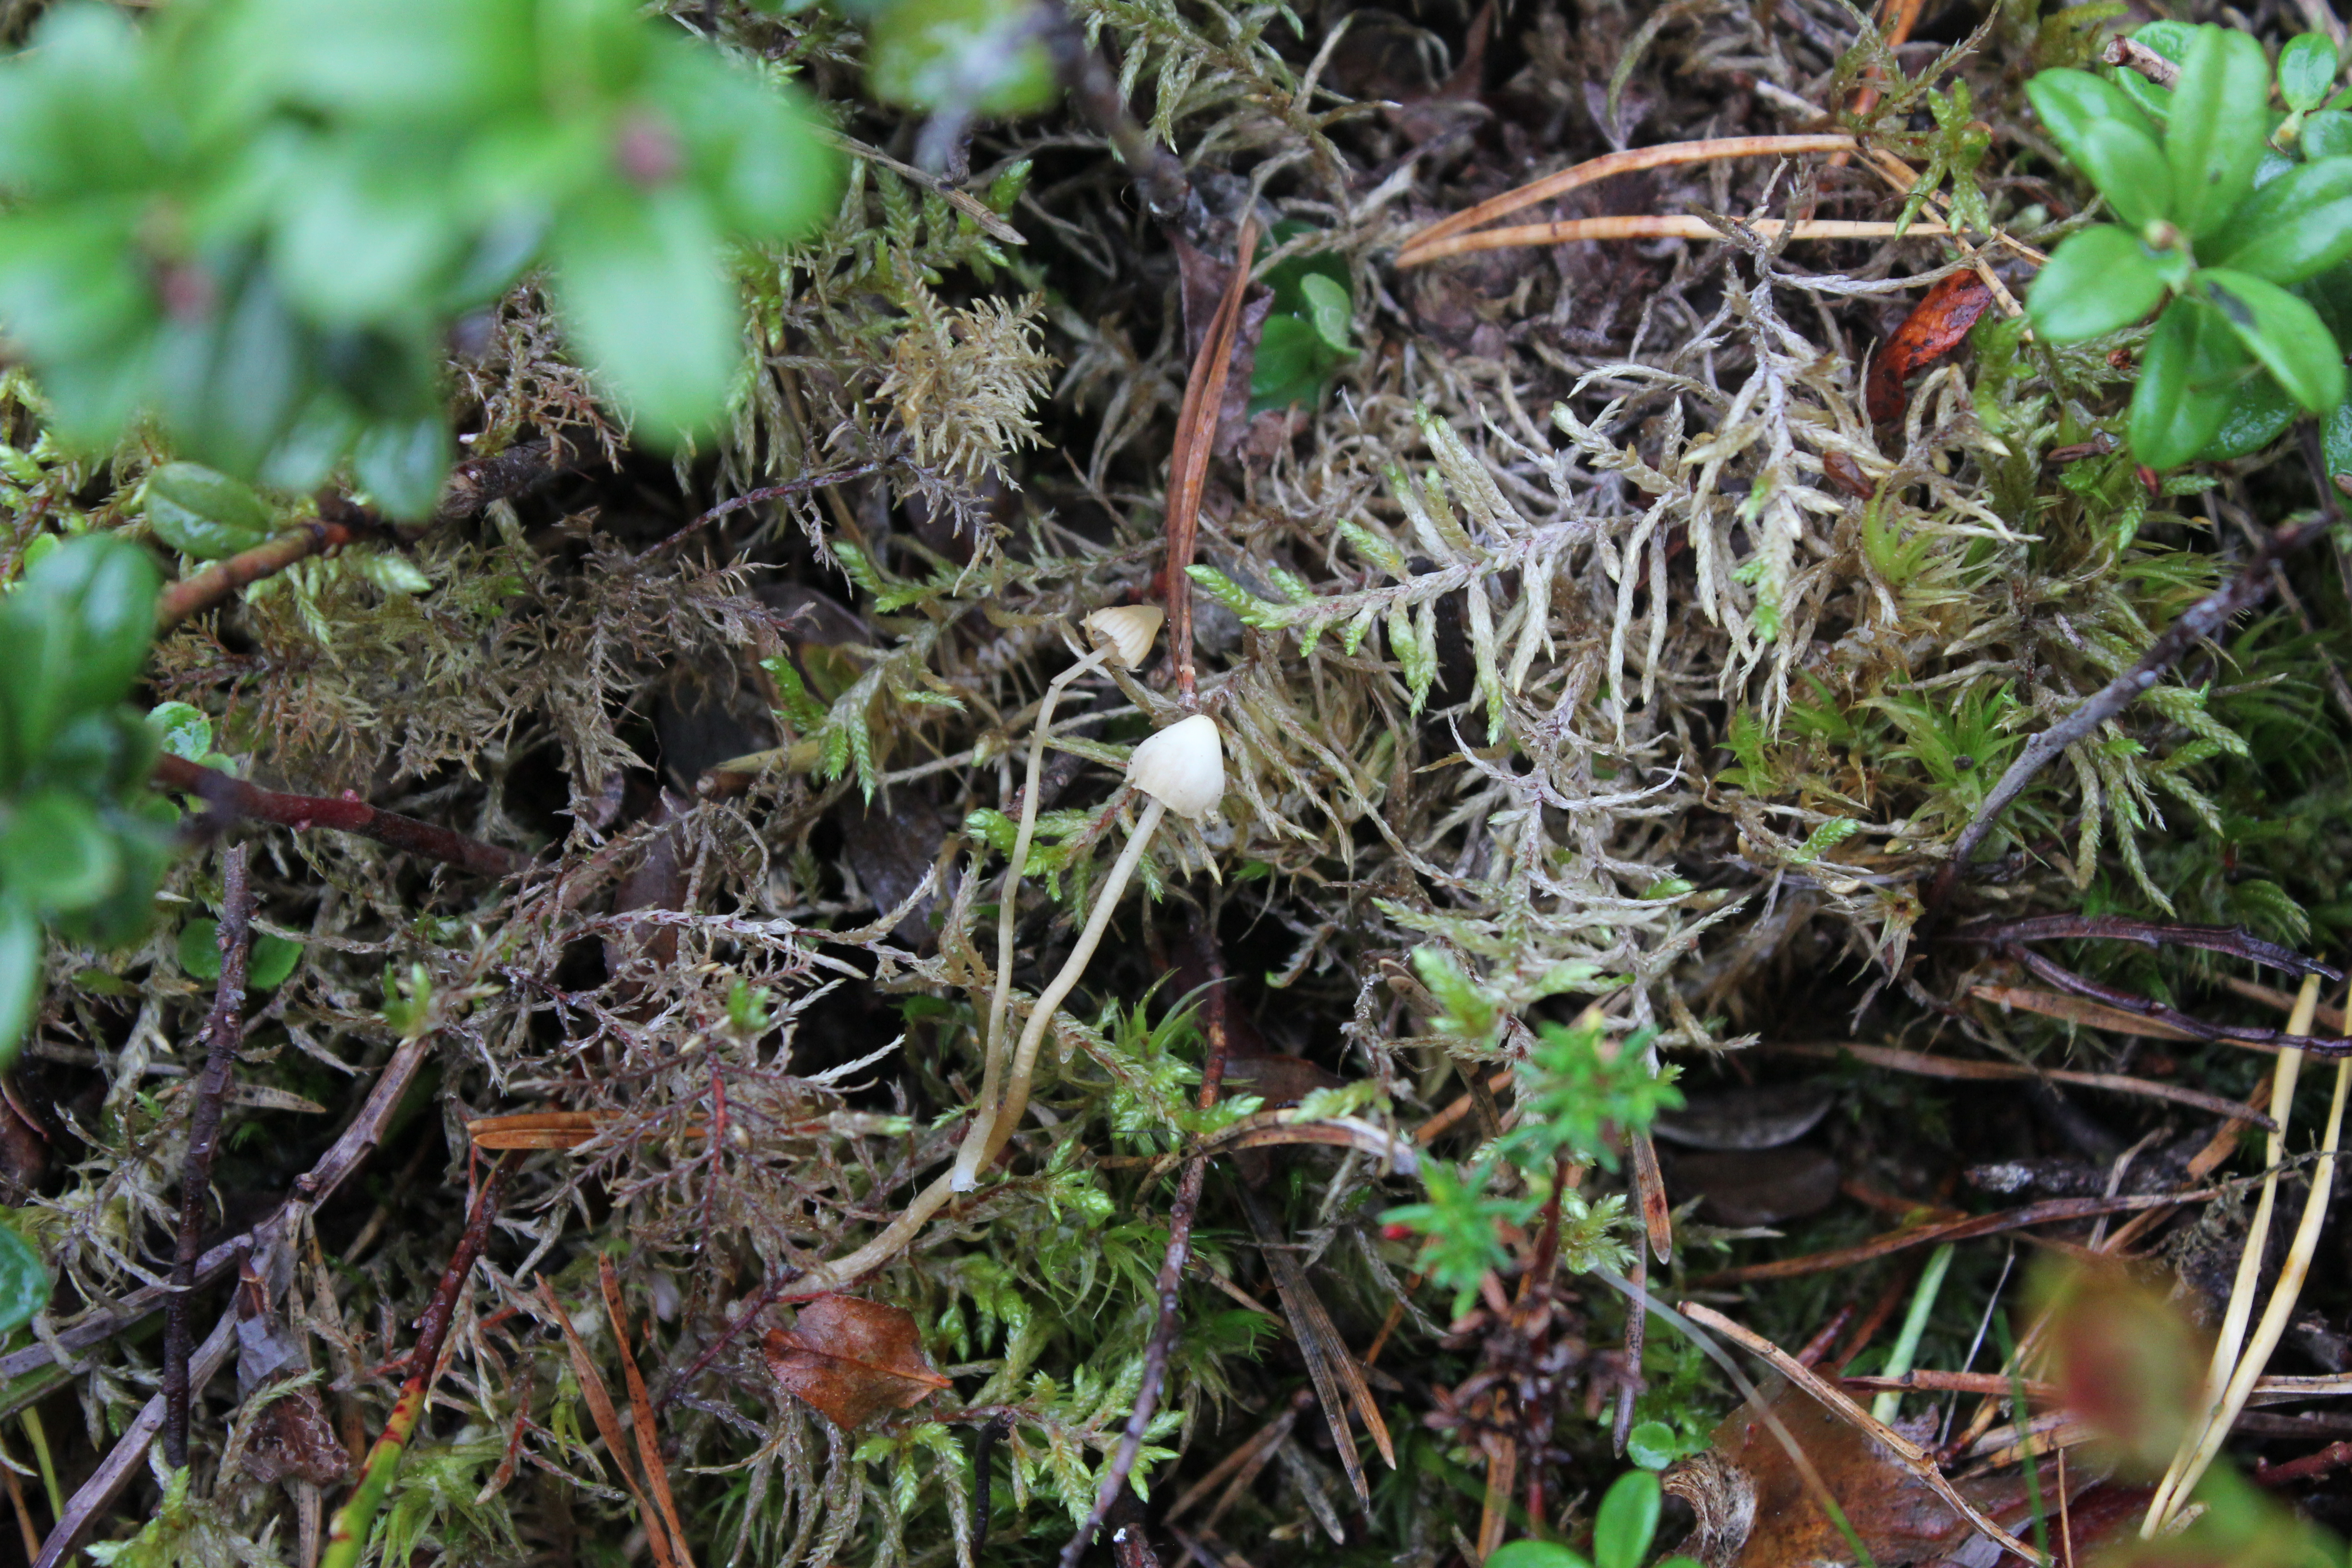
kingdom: Fungi
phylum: Basidiomycota
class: Agaricomycetes
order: Agaricales
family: Hymenogastraceae
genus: Galerina
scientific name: Galerina mniophila
